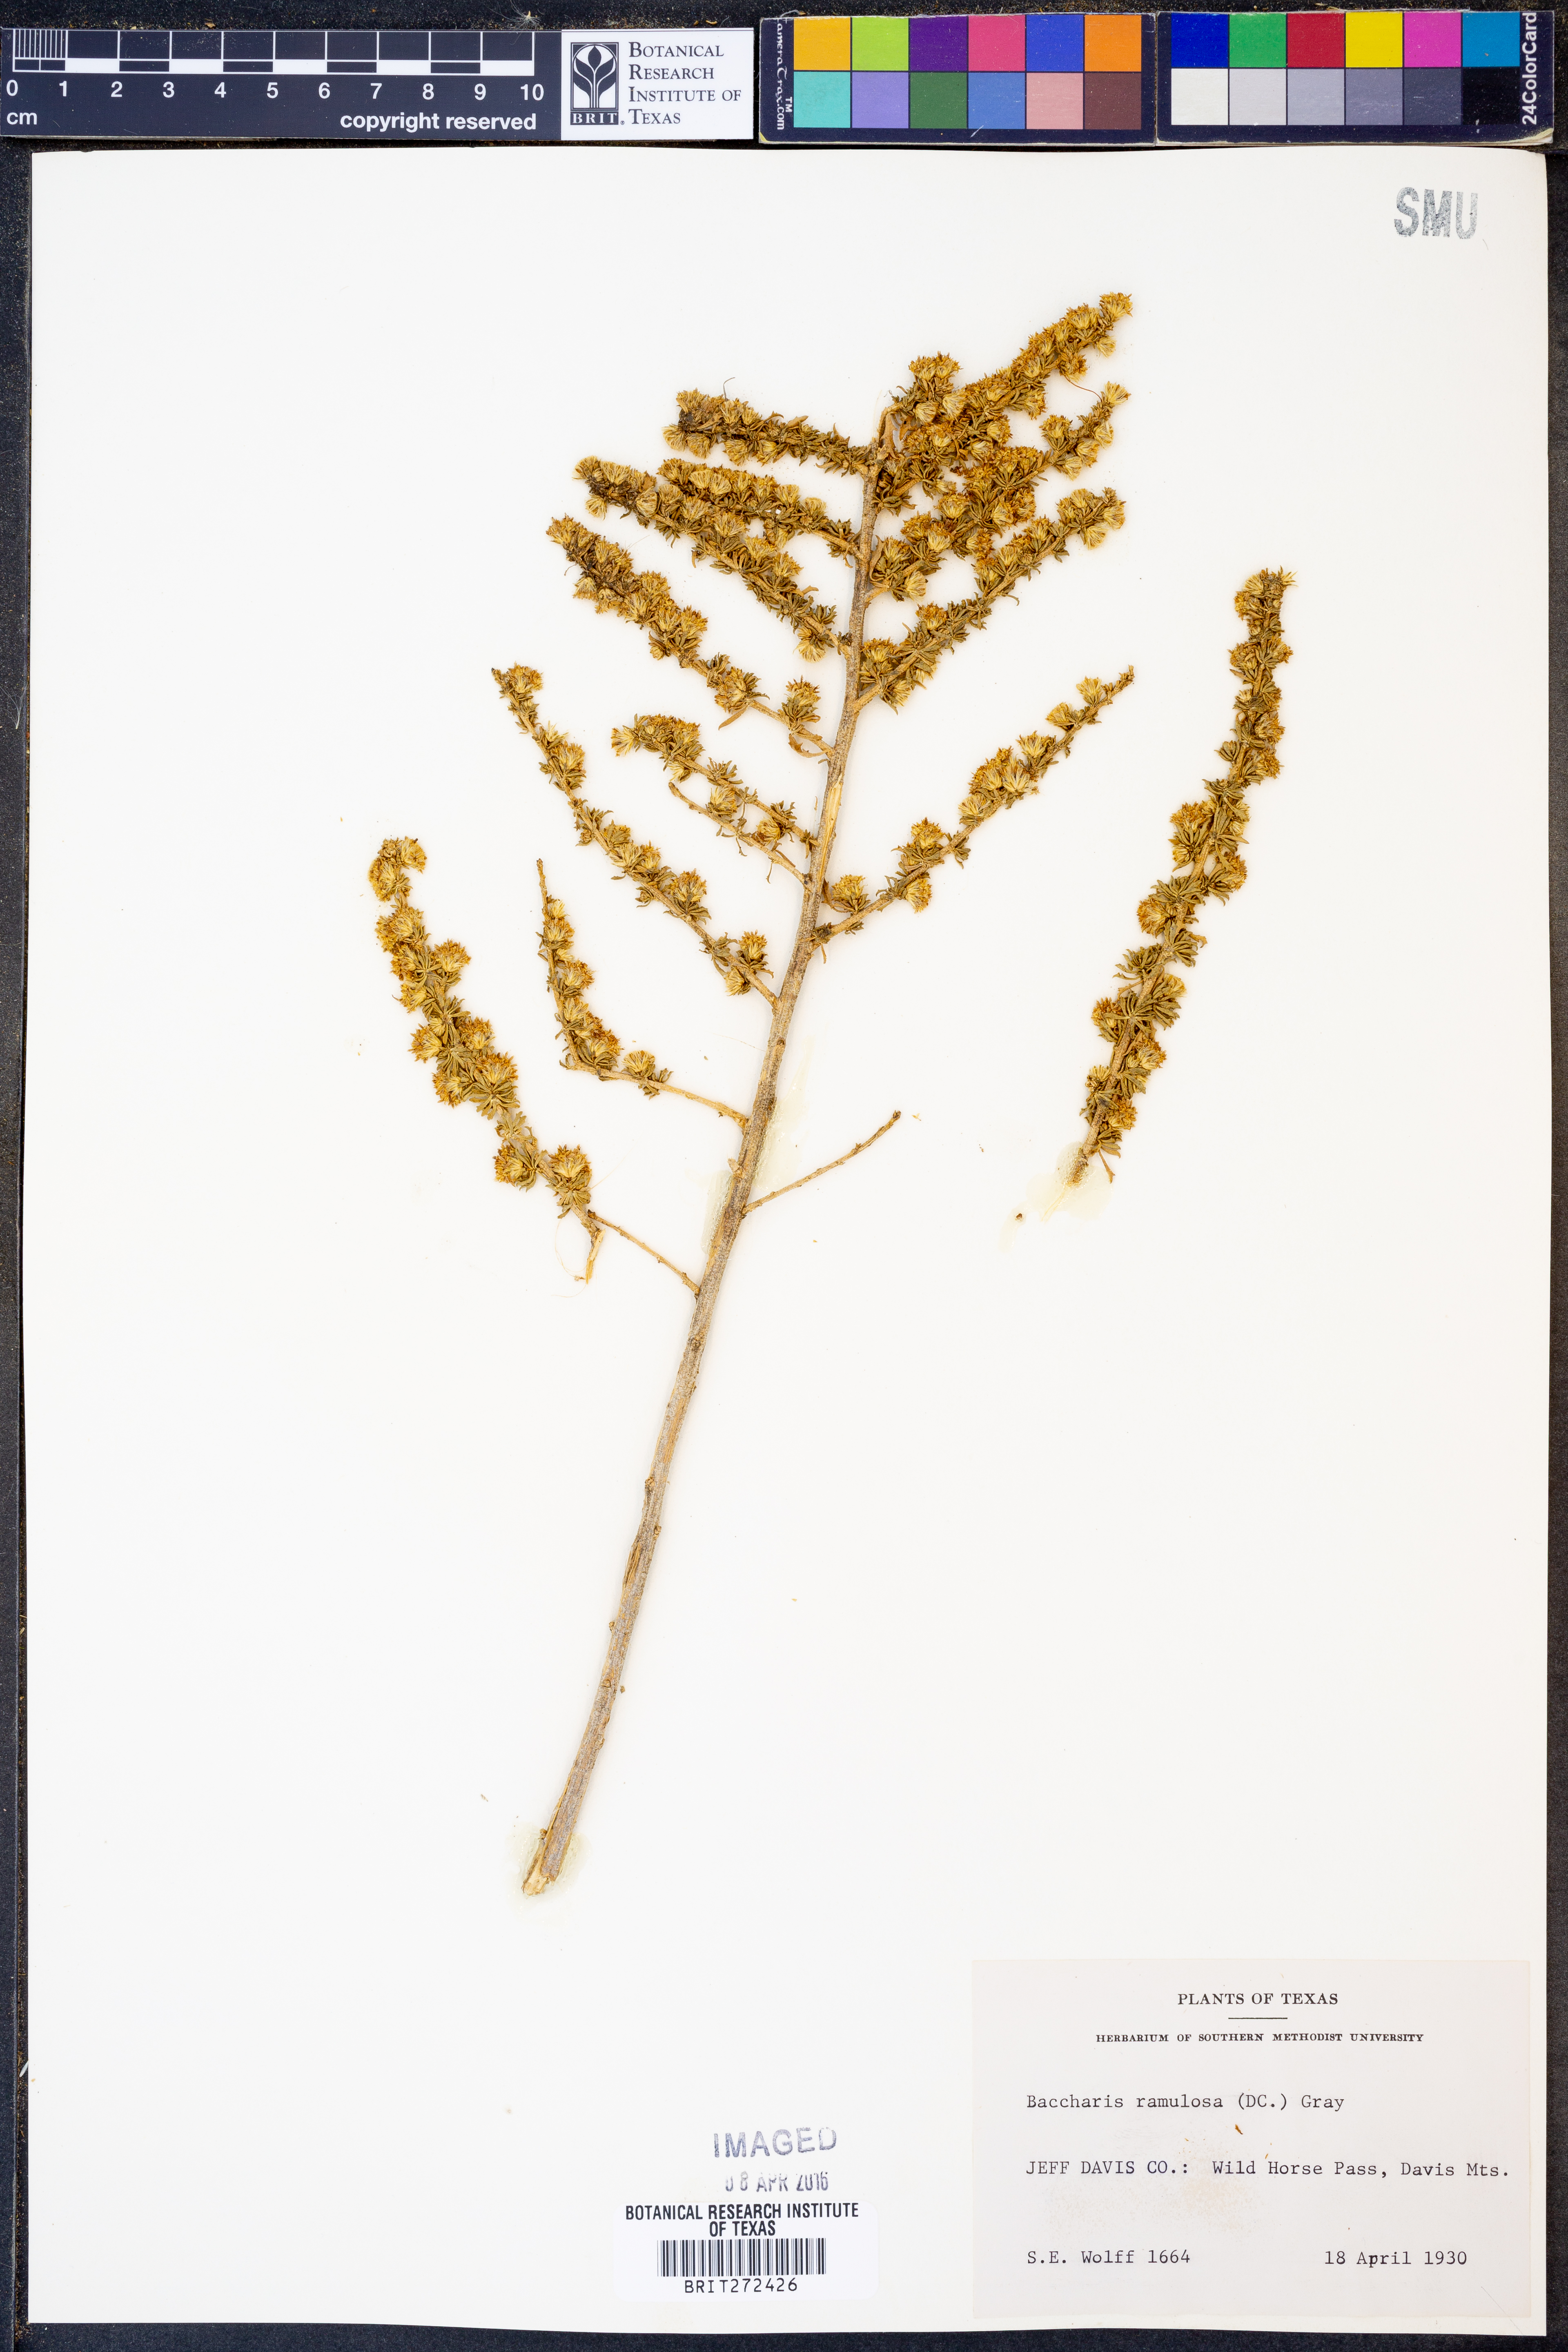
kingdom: Plantae
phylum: Tracheophyta
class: Magnoliopsida
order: Asterales
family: Asteraceae
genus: Baccharis
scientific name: Baccharis pteronioides
